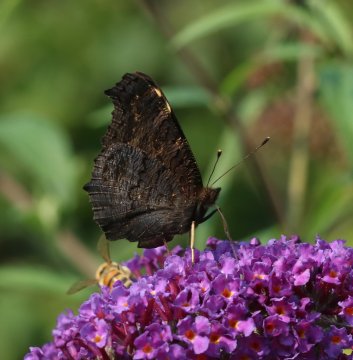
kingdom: Animalia
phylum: Arthropoda
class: Insecta
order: Lepidoptera
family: Nymphalidae
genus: Aglais
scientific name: Aglais io
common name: European Peacock
